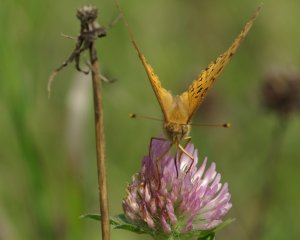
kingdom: Animalia
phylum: Arthropoda
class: Insecta
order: Lepidoptera
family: Nymphalidae
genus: Speyeria
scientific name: Speyeria aphrodite
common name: Aphrodite Fritillary
